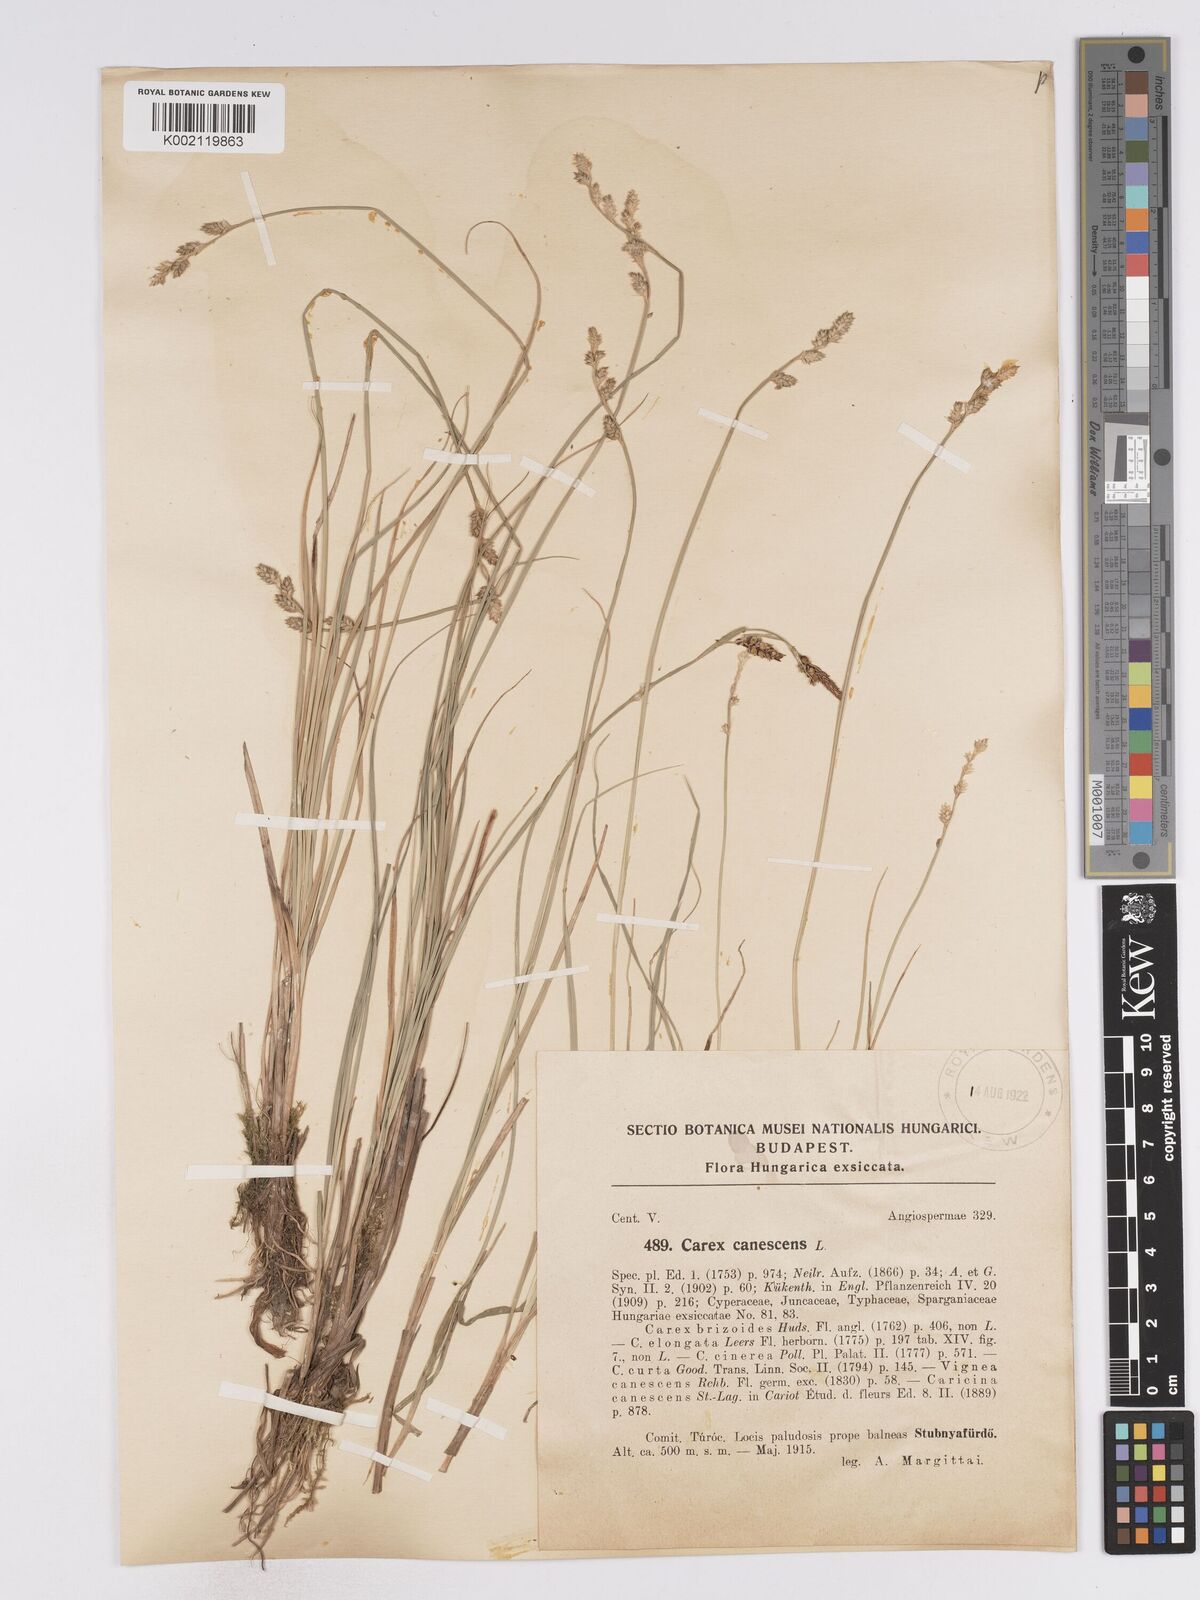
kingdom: Plantae
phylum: Tracheophyta
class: Liliopsida
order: Poales
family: Cyperaceae
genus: Carex
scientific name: Carex curta
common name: White sedge
